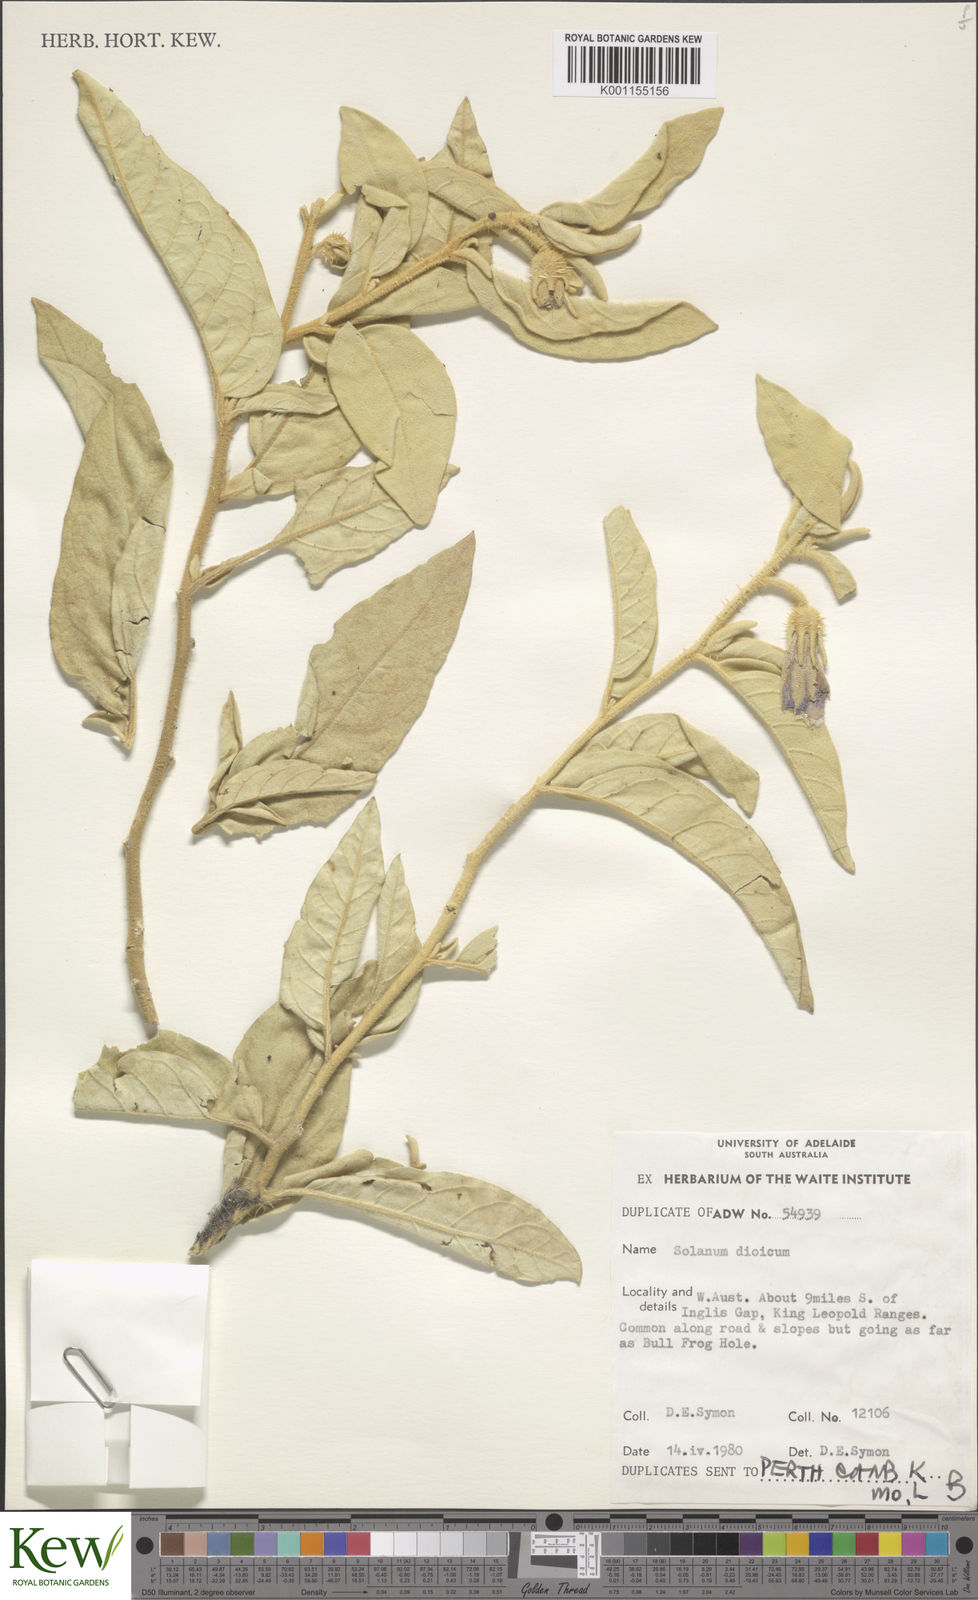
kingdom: Plantae
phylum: Tracheophyta
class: Magnoliopsida
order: Solanales
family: Solanaceae
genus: Solanum
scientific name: Solanum dioicum
